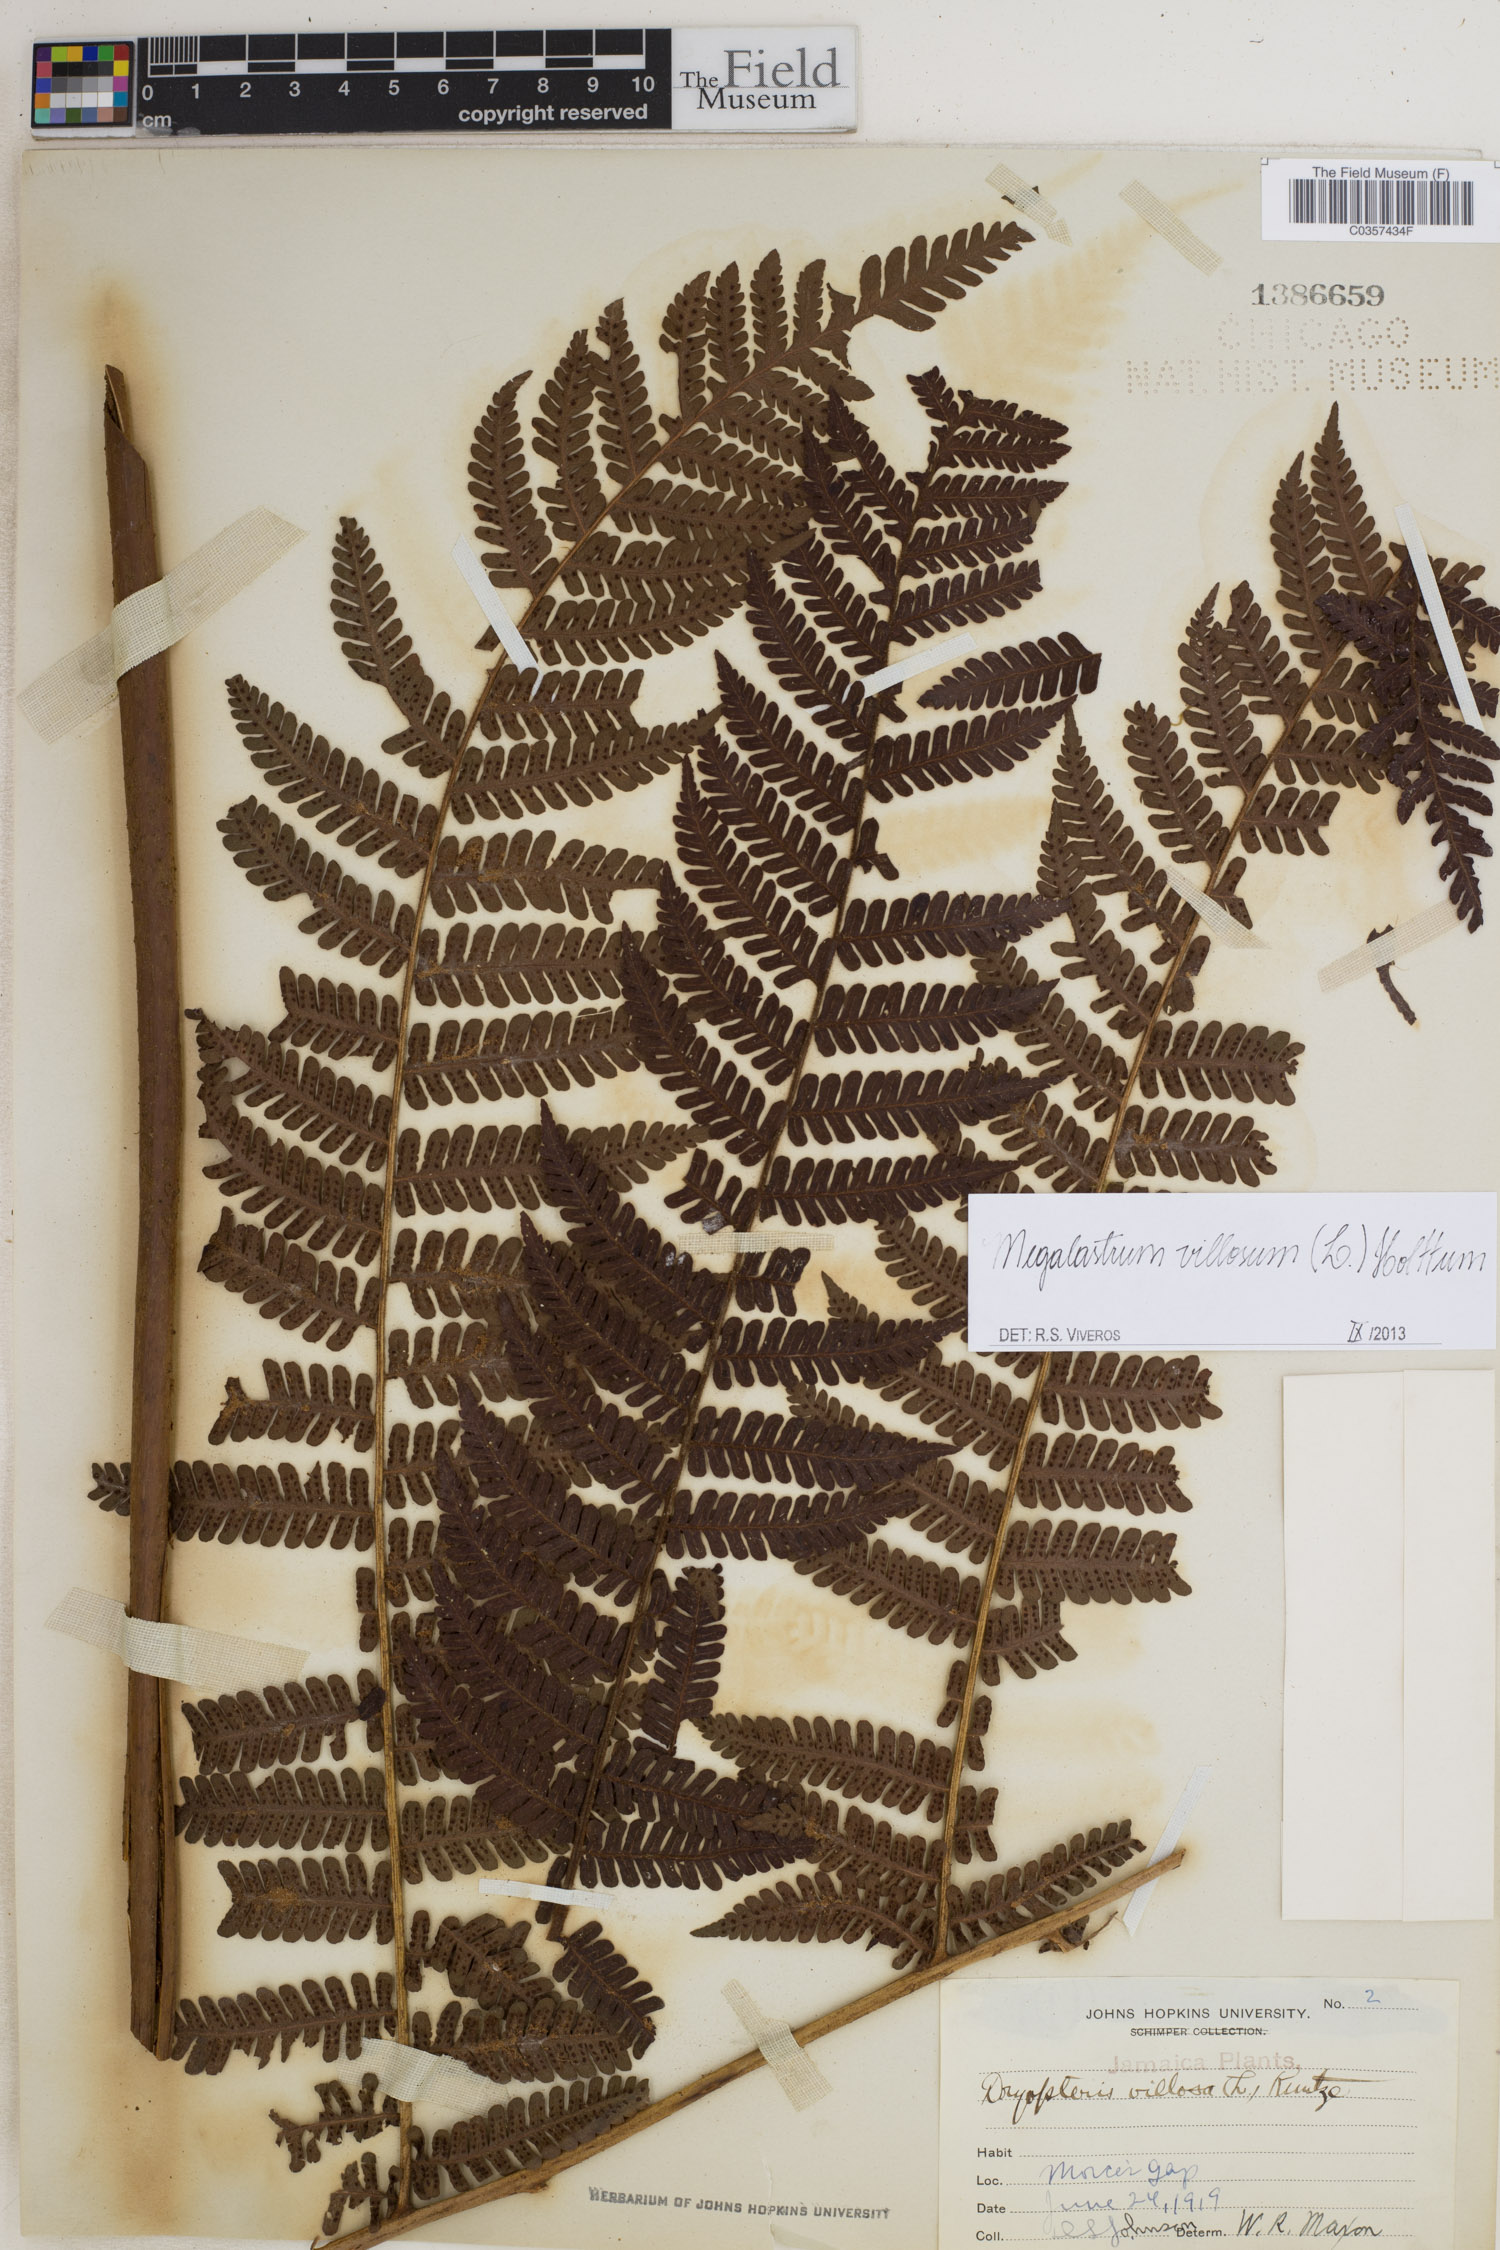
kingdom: Plantae
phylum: Tracheophyta
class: Polypodiopsida
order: Polypodiales
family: Dryopteridaceae
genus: Megalastrum
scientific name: Megalastrum villosum
